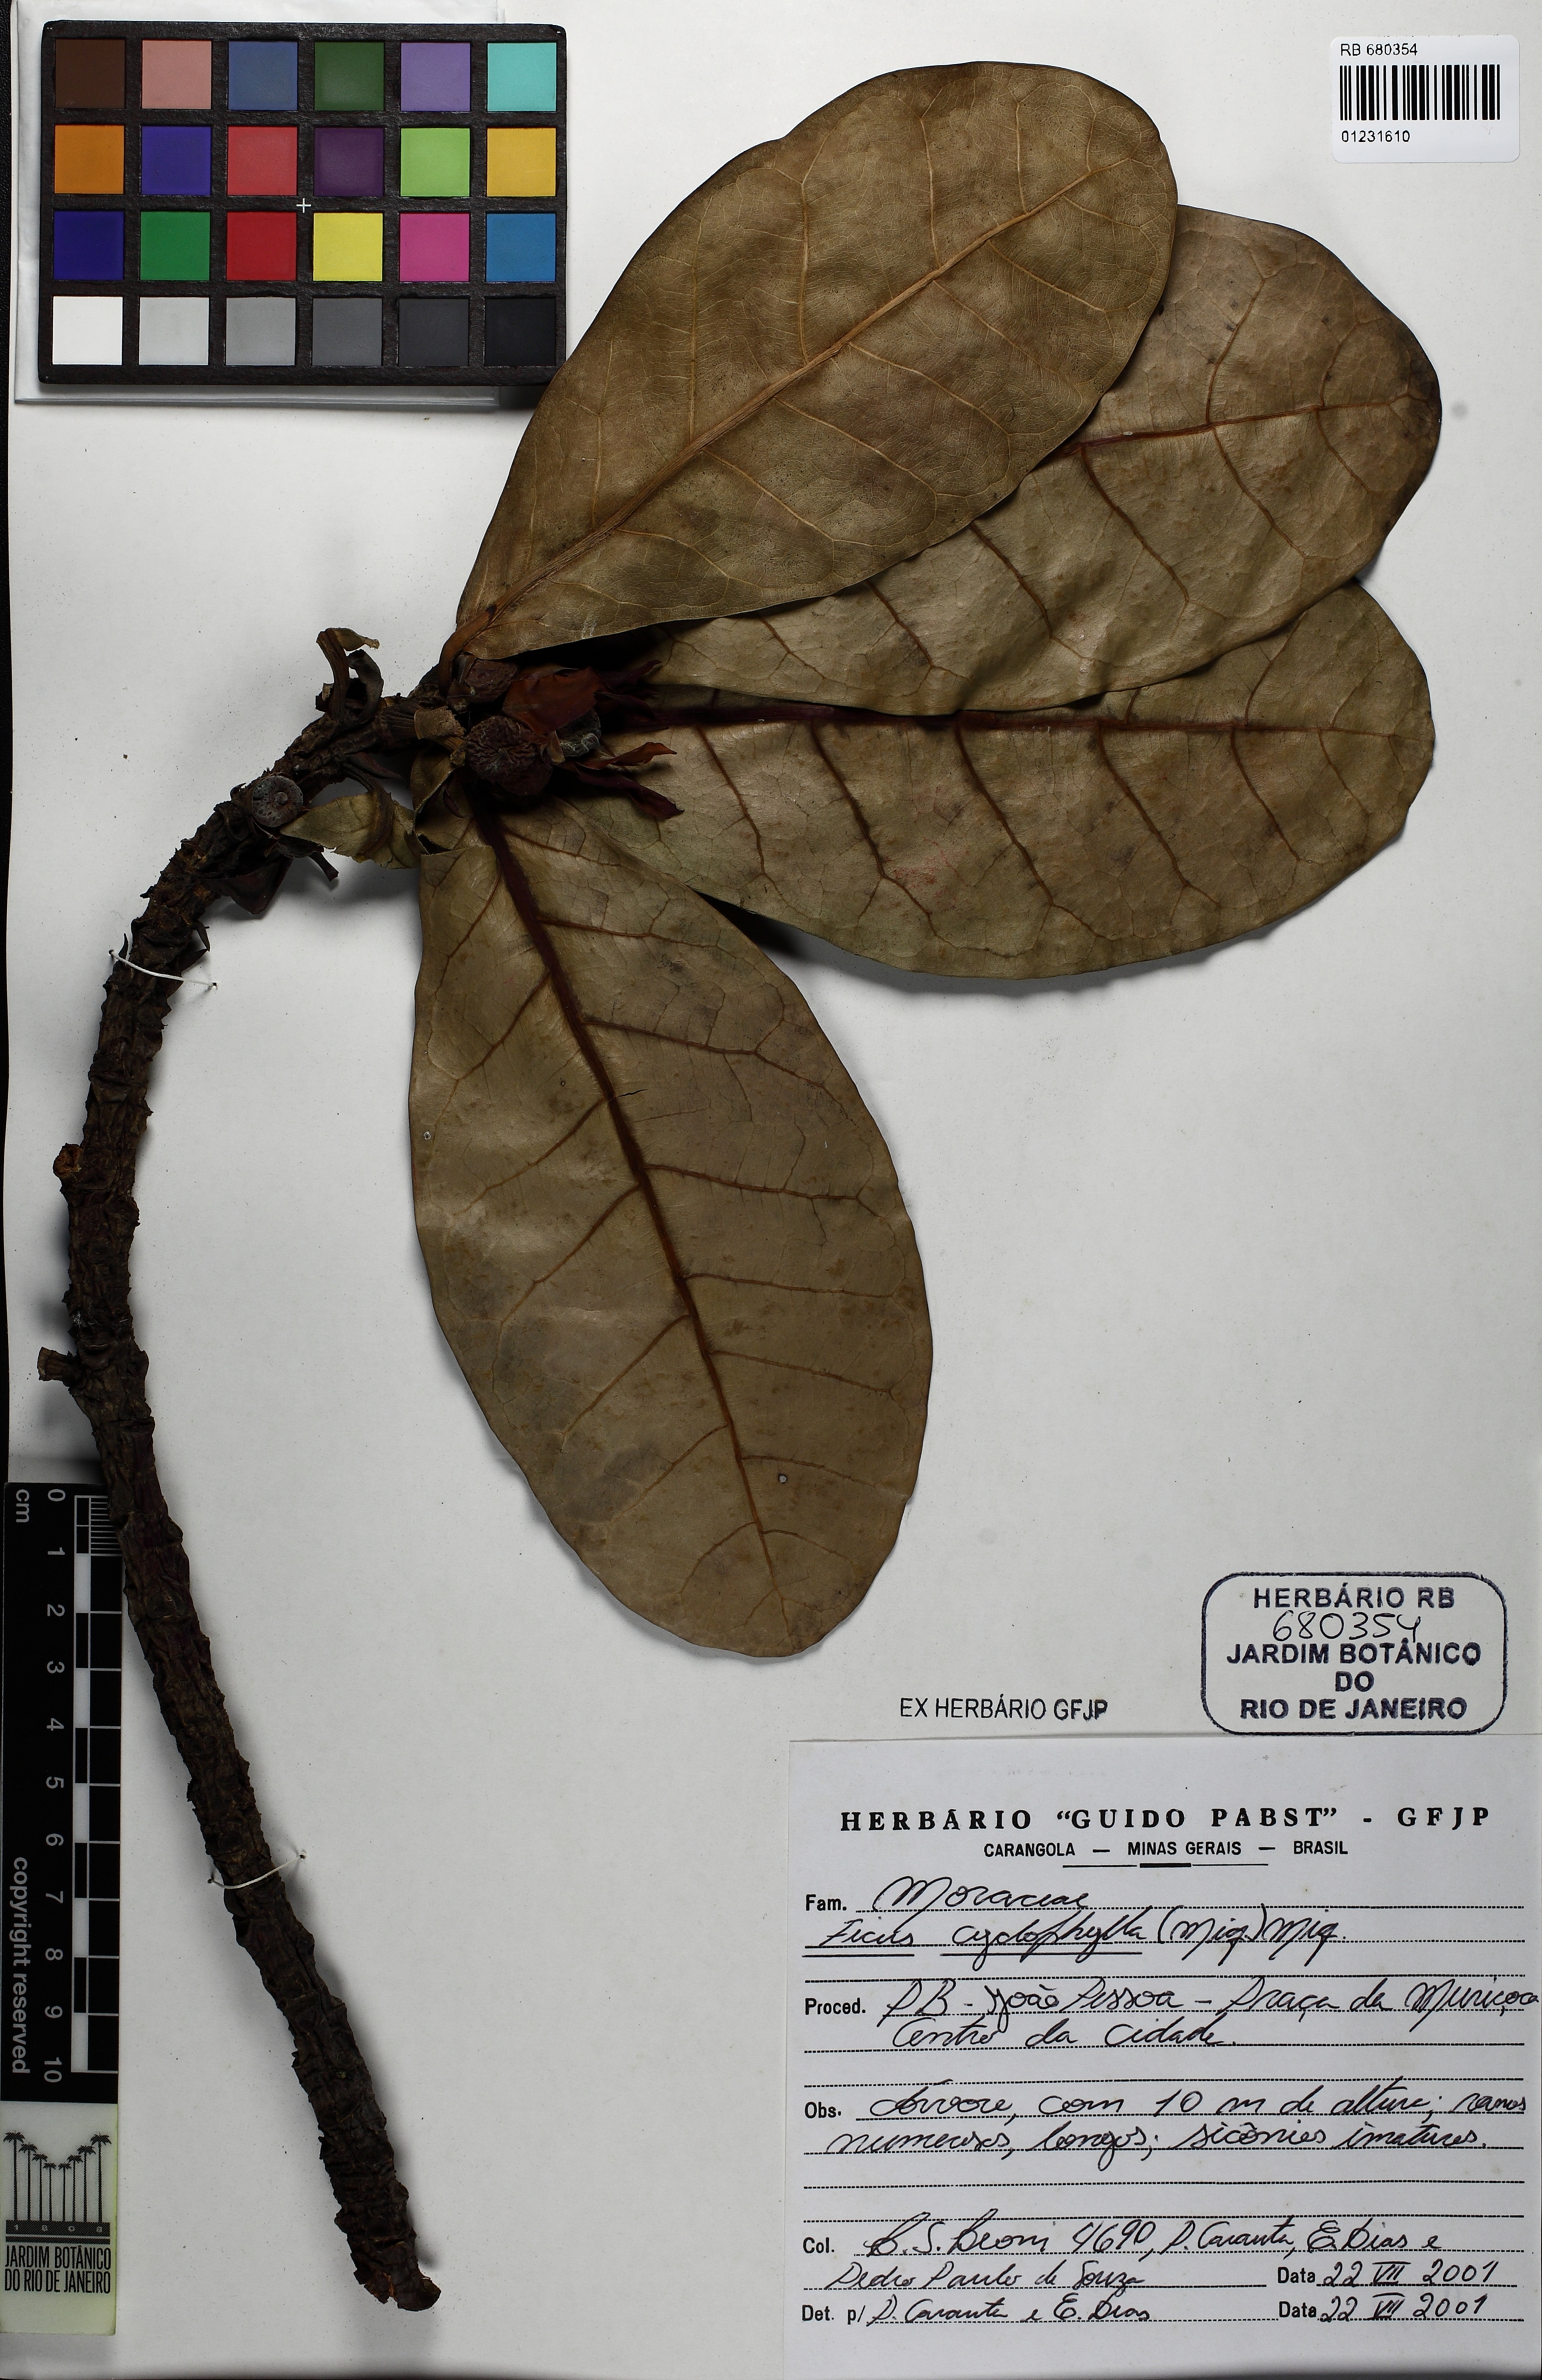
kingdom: Plantae
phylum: Tracheophyta
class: Magnoliopsida
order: Rosales
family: Moraceae
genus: Ficus
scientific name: Ficus cyclophylla
